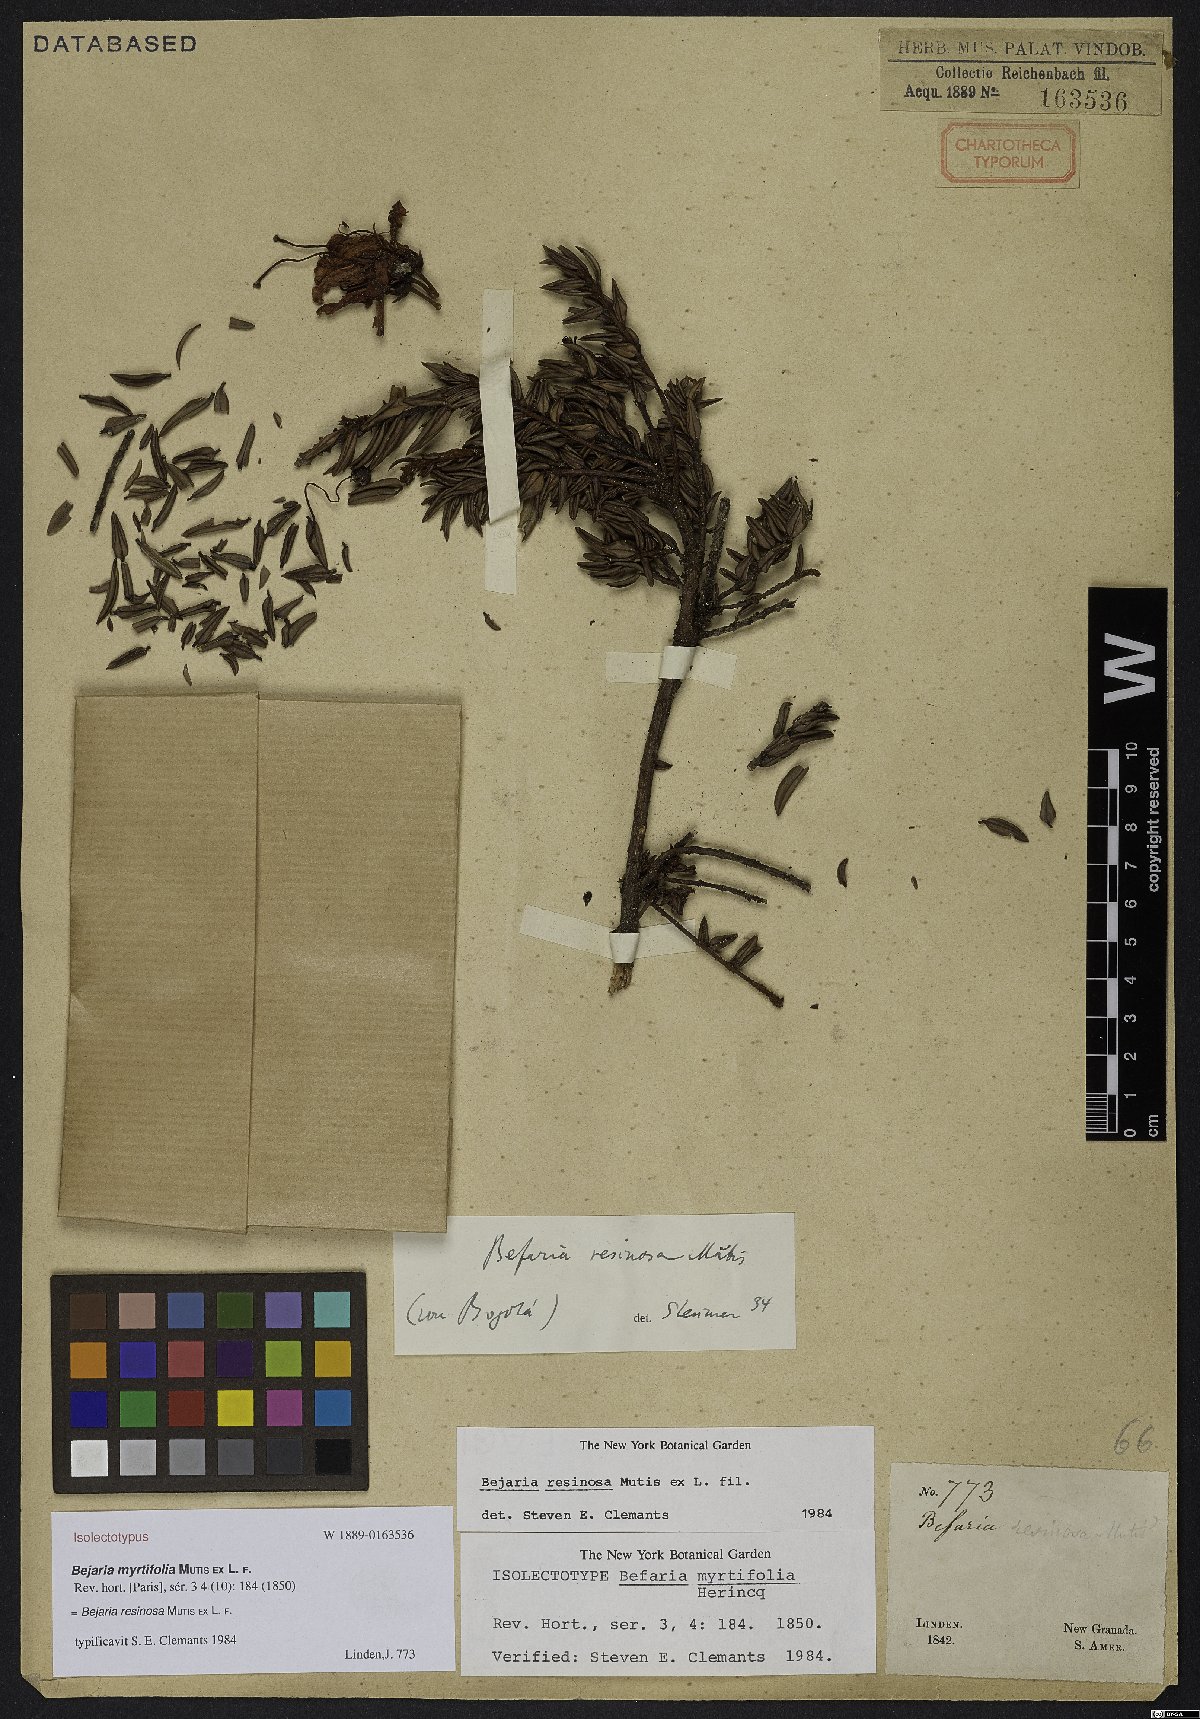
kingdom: Plantae
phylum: Tracheophyta
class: Magnoliopsida
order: Ericales
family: Ericaceae
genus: Bejaria
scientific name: Bejaria resinosa
